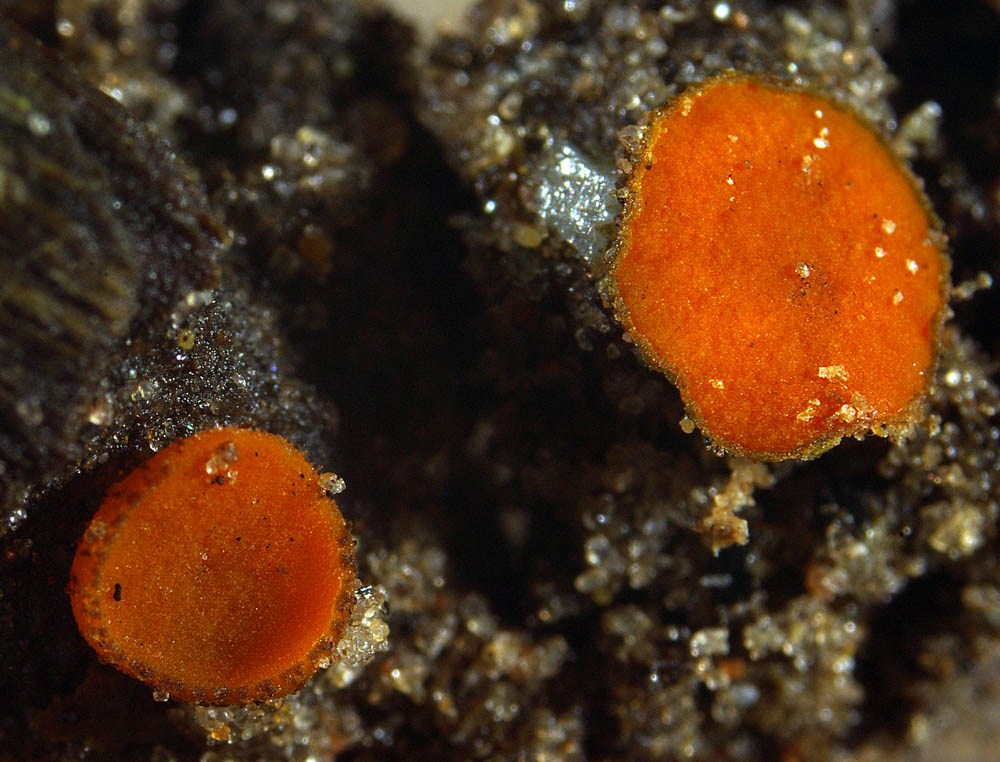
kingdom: Fungi
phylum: Ascomycota
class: Pezizomycetes
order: Pezizales
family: Pyronemataceae
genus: Anthracobia
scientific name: Anthracobia macrocystis
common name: orange ildbæger
